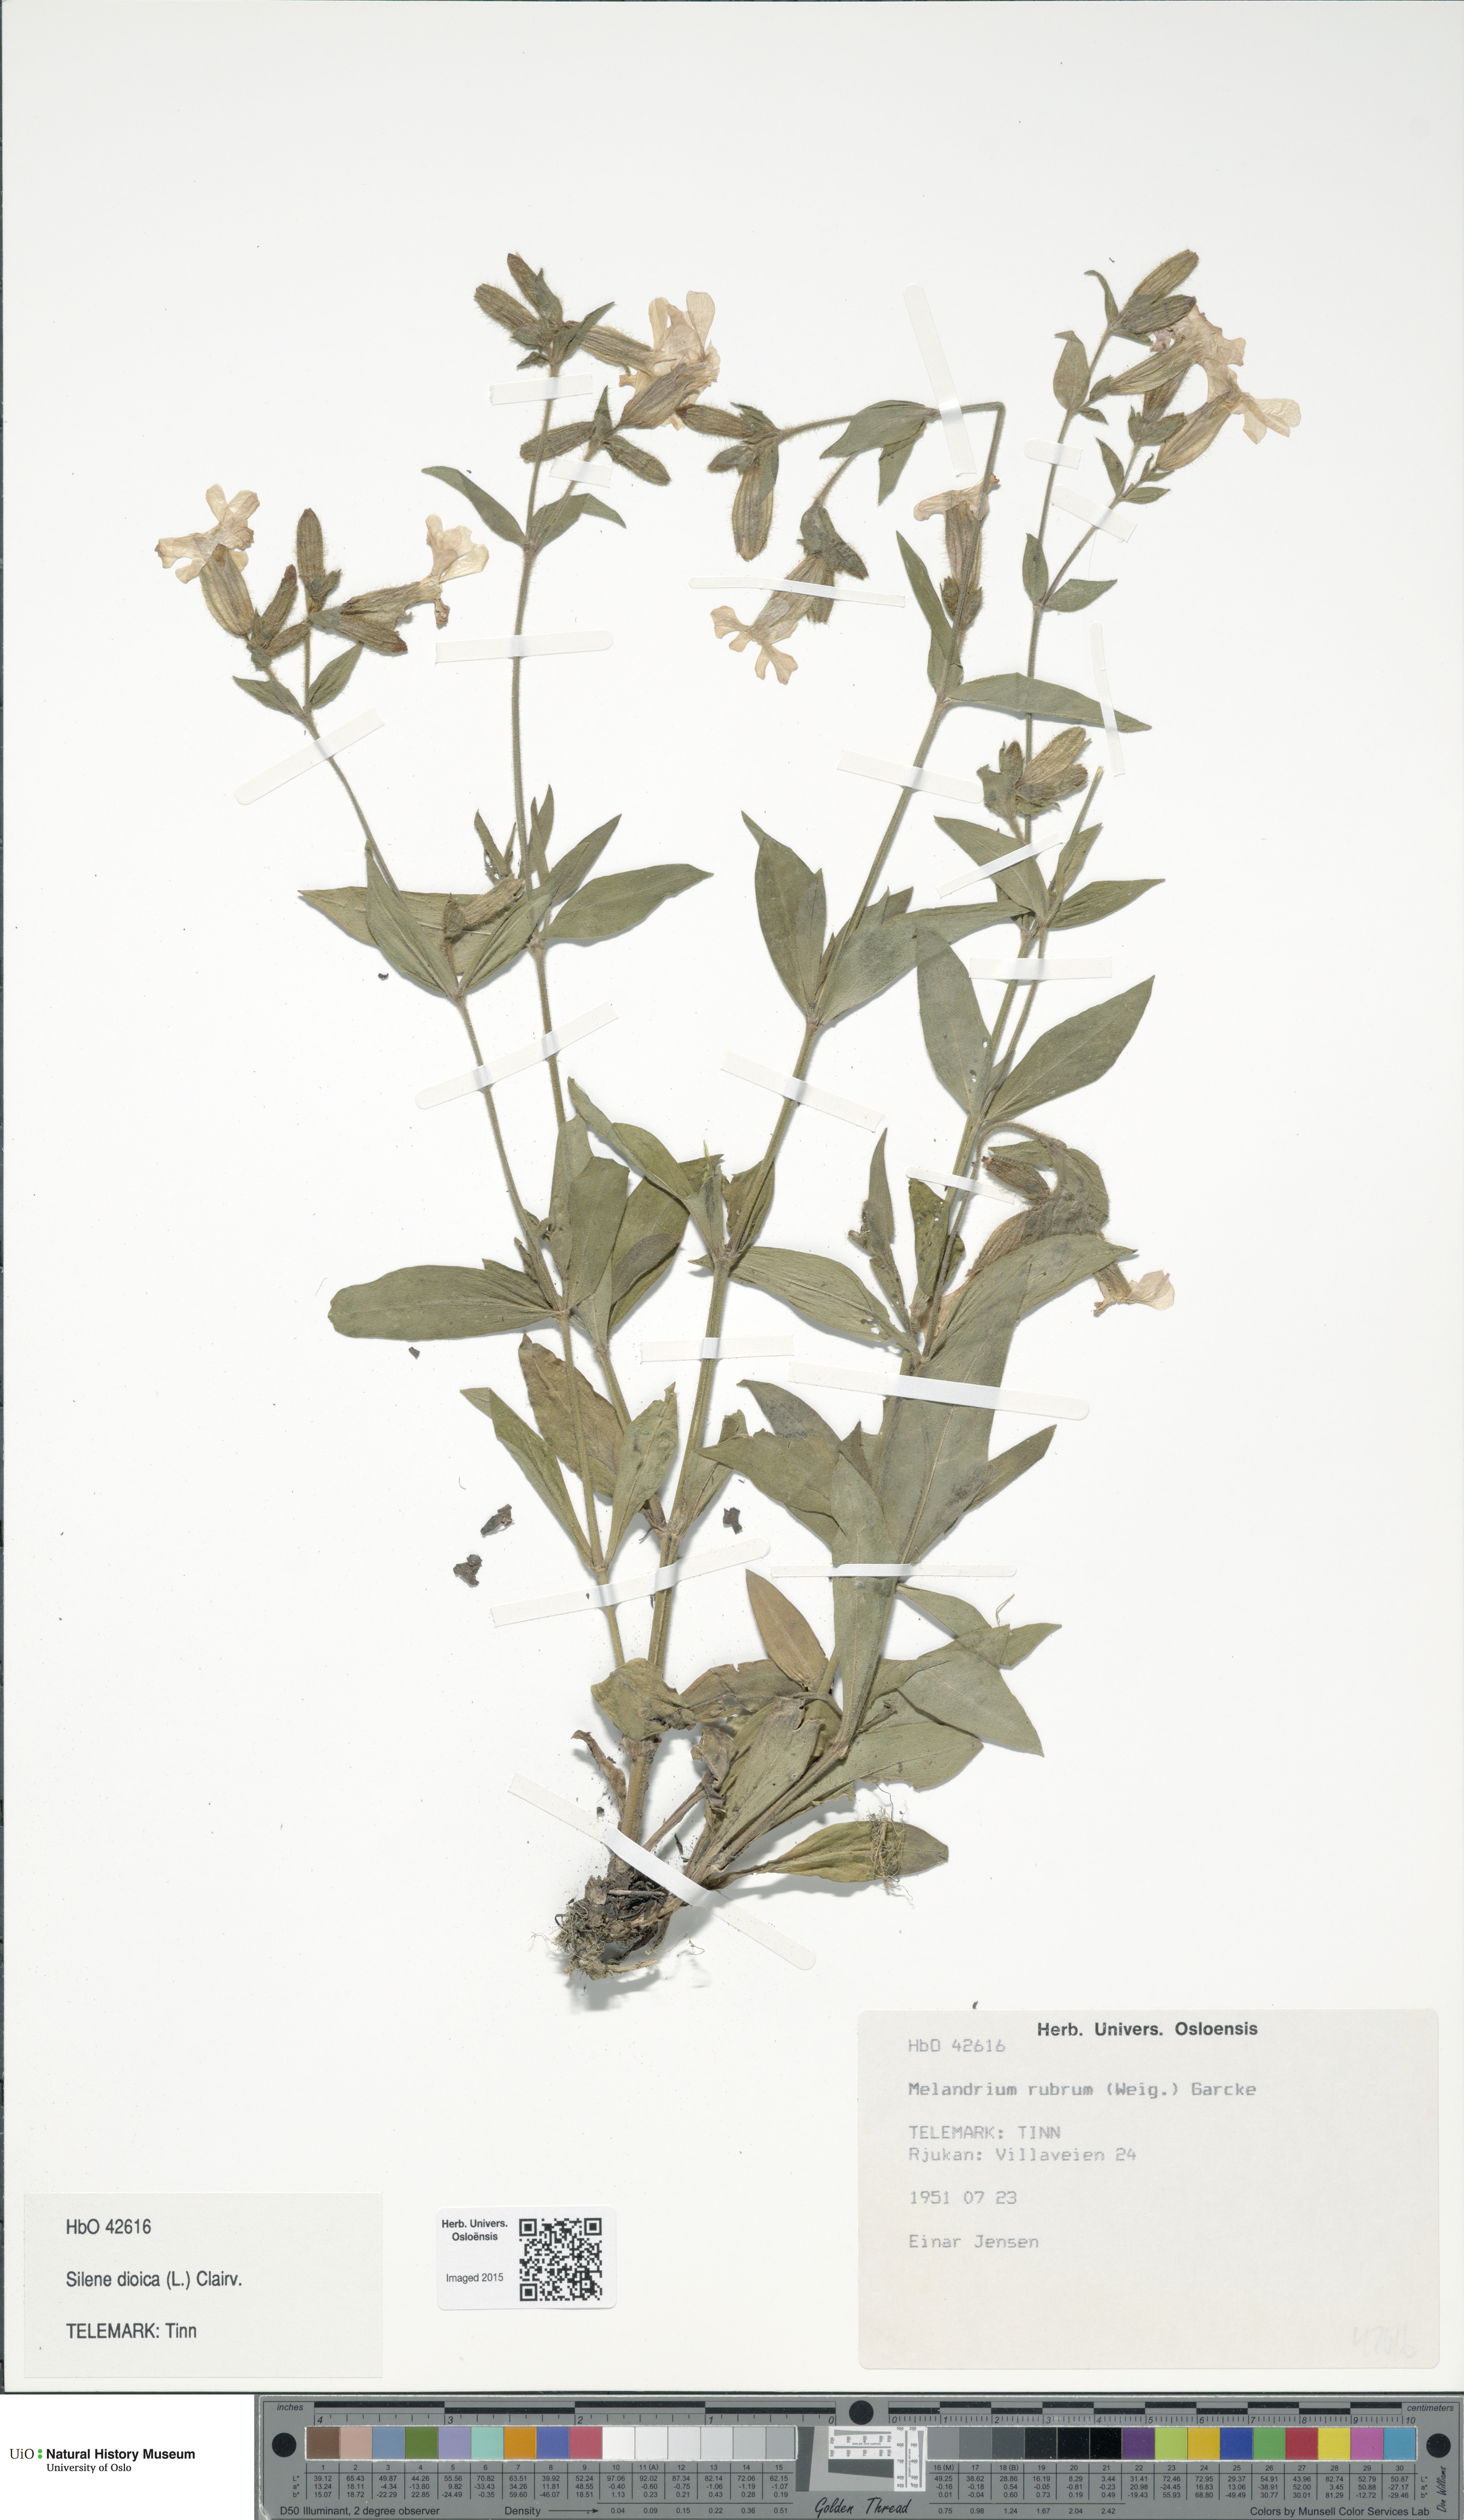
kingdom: Plantae
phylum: Tracheophyta
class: Magnoliopsida
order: Caryophyllales
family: Caryophyllaceae
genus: Silene
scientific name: Silene dioica
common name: Red campion
